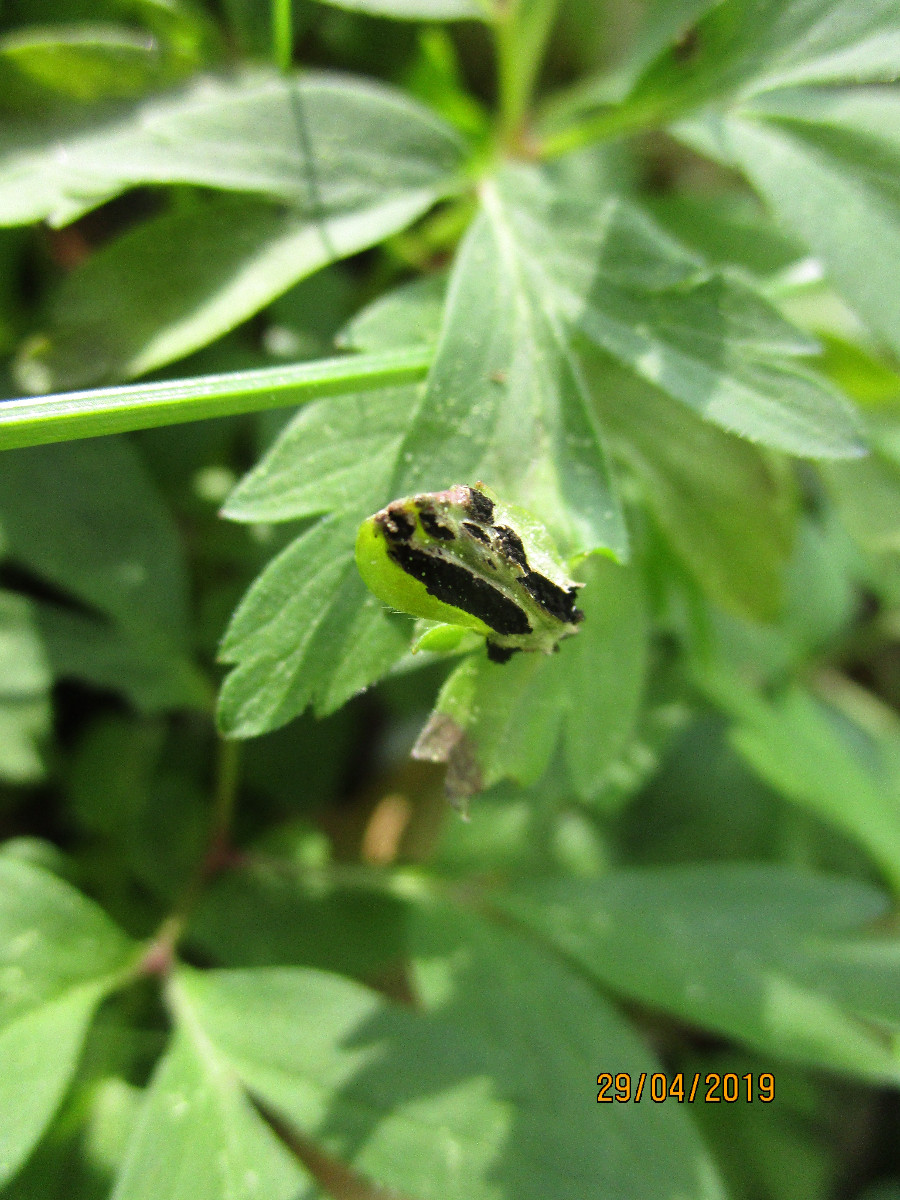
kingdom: Fungi
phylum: Basidiomycota
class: Ustilaginomycetes
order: Urocystidales
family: Urocystidaceae
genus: Urocystis
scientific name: Urocystis anemones
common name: anemone-brand
